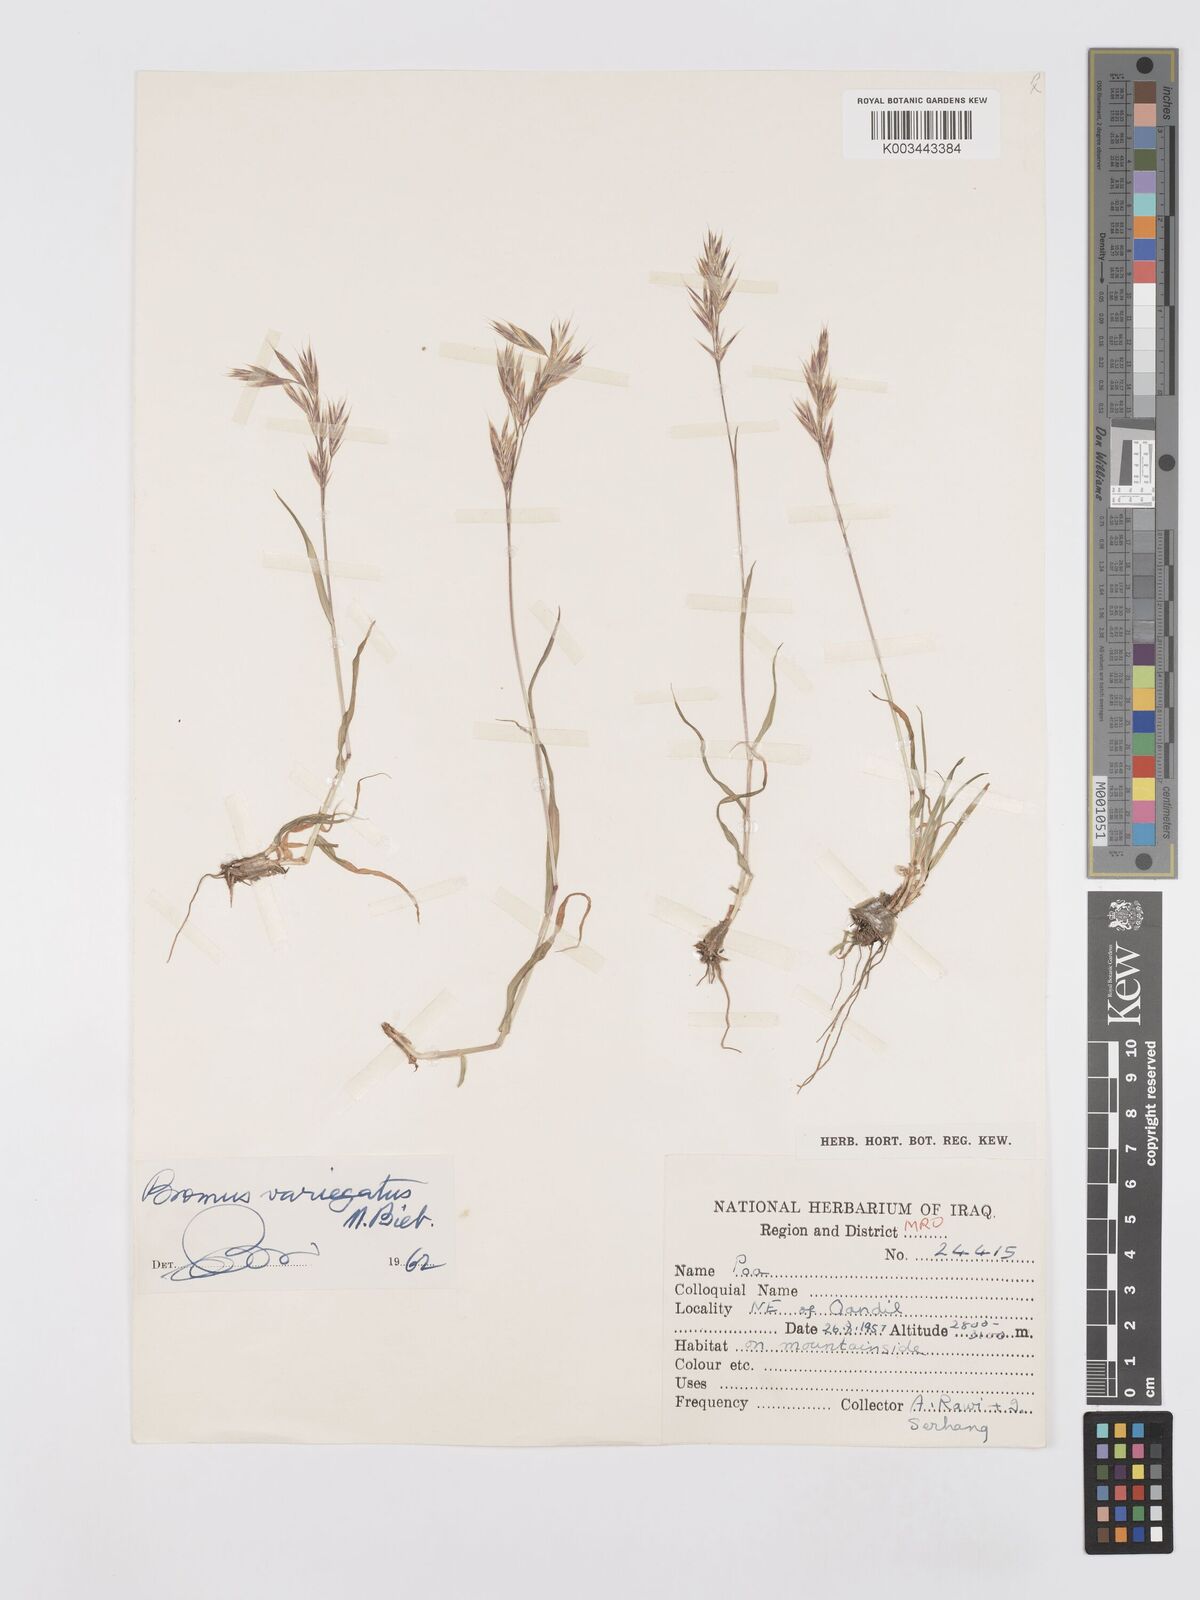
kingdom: Plantae
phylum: Tracheophyta
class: Liliopsida
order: Poales
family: Poaceae
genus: Bromus
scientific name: Bromus variegatus
